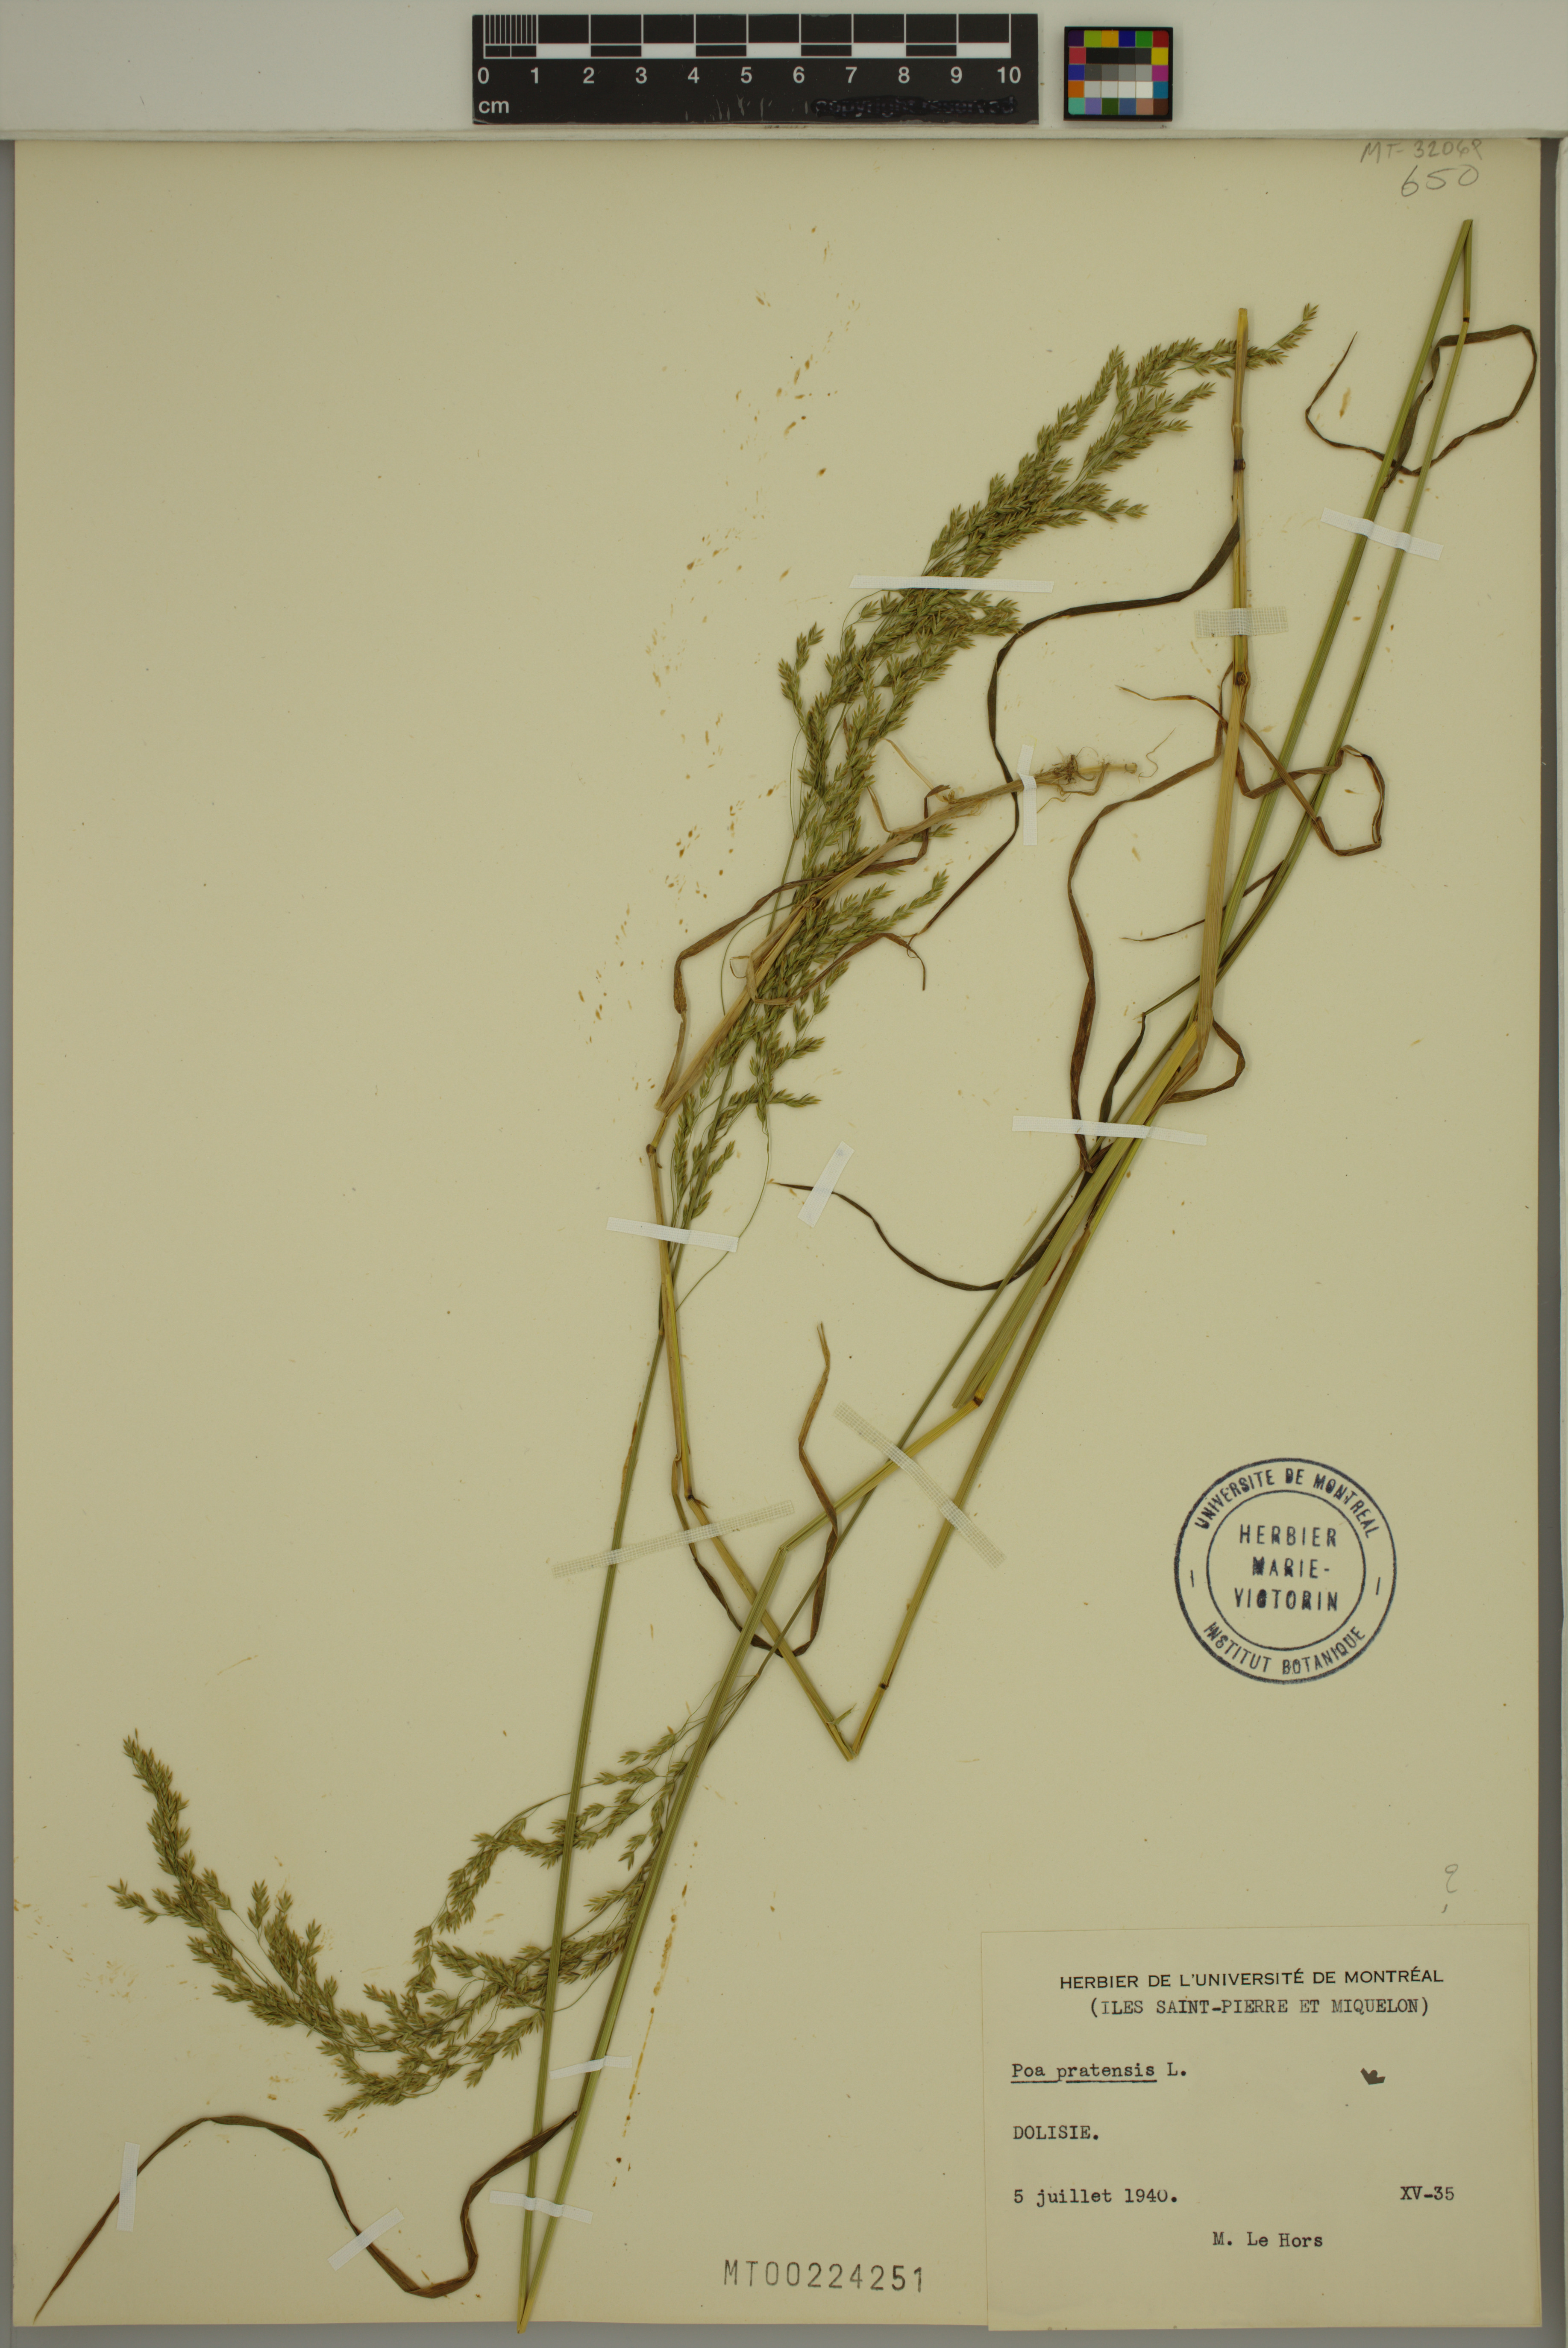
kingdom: Plantae
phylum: Tracheophyta
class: Liliopsida
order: Poales
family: Poaceae
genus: Poa
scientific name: Poa pratensis
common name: Kentucky bluegrass
